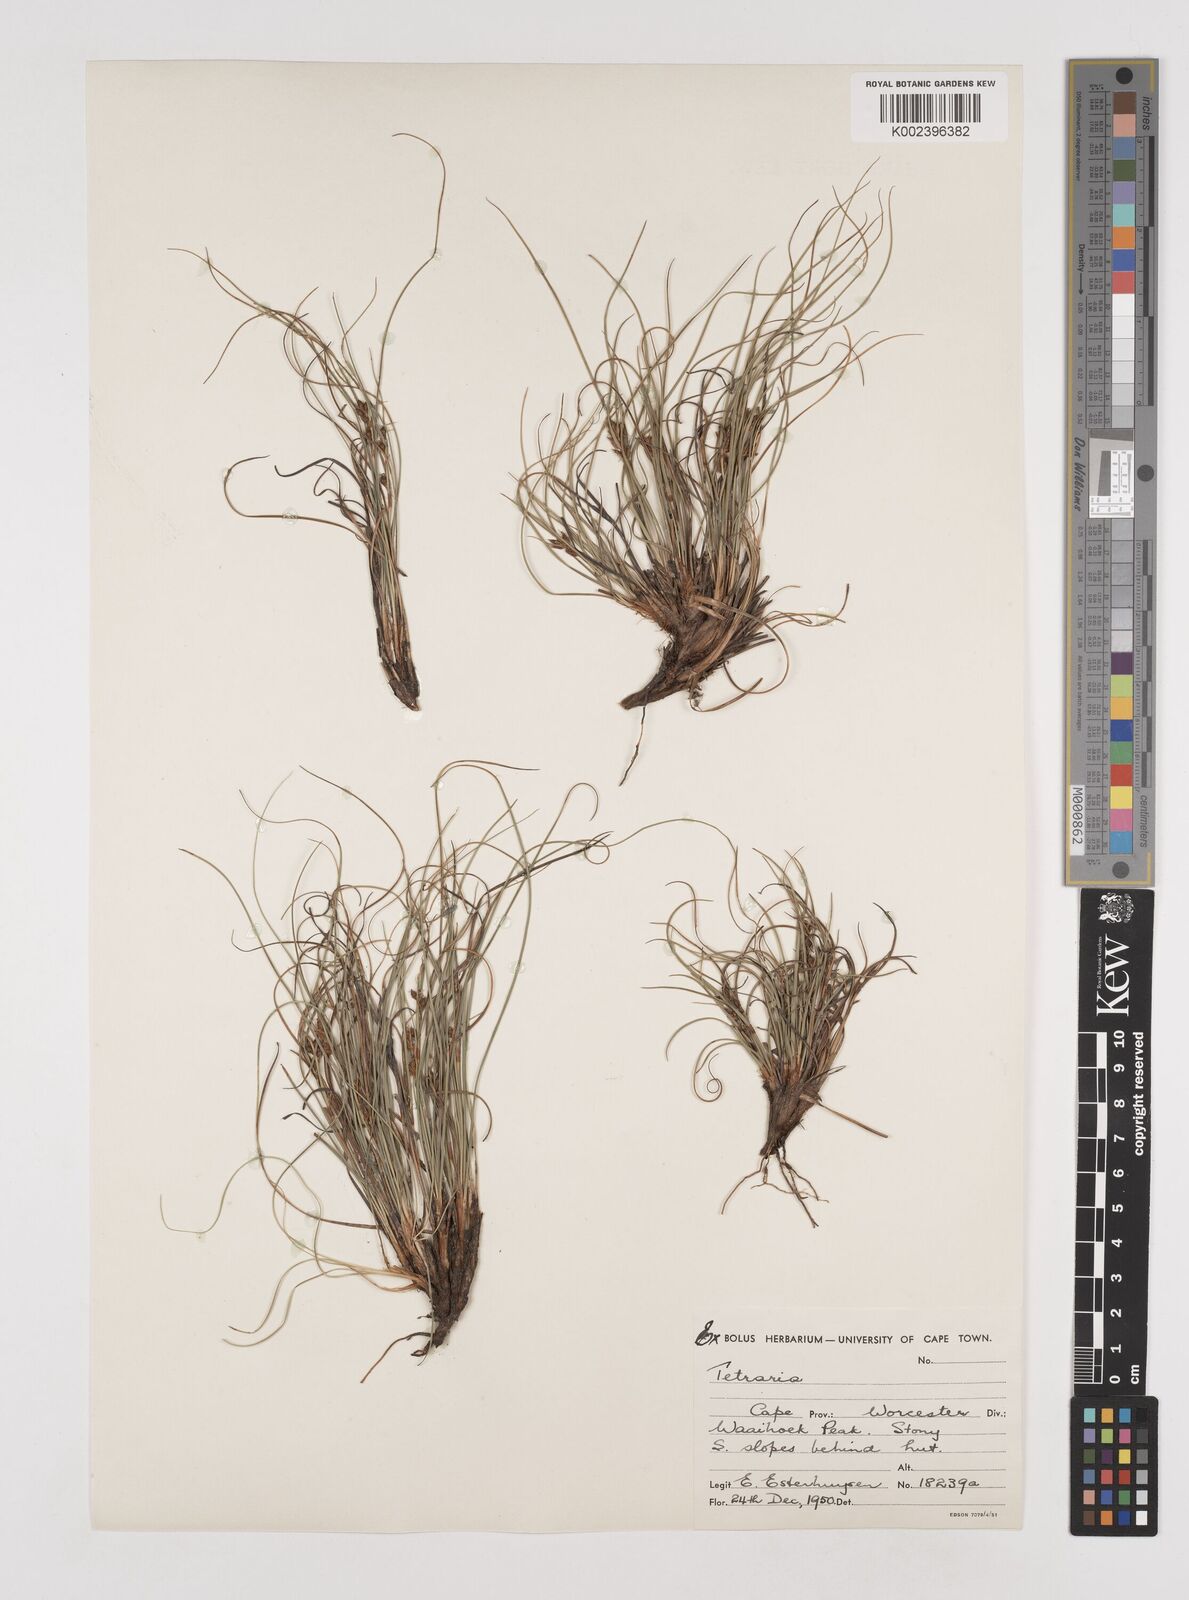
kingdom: Plantae
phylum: Tracheophyta
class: Liliopsida
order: Poales
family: Cyperaceae
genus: Tetraria
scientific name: Tetraria
